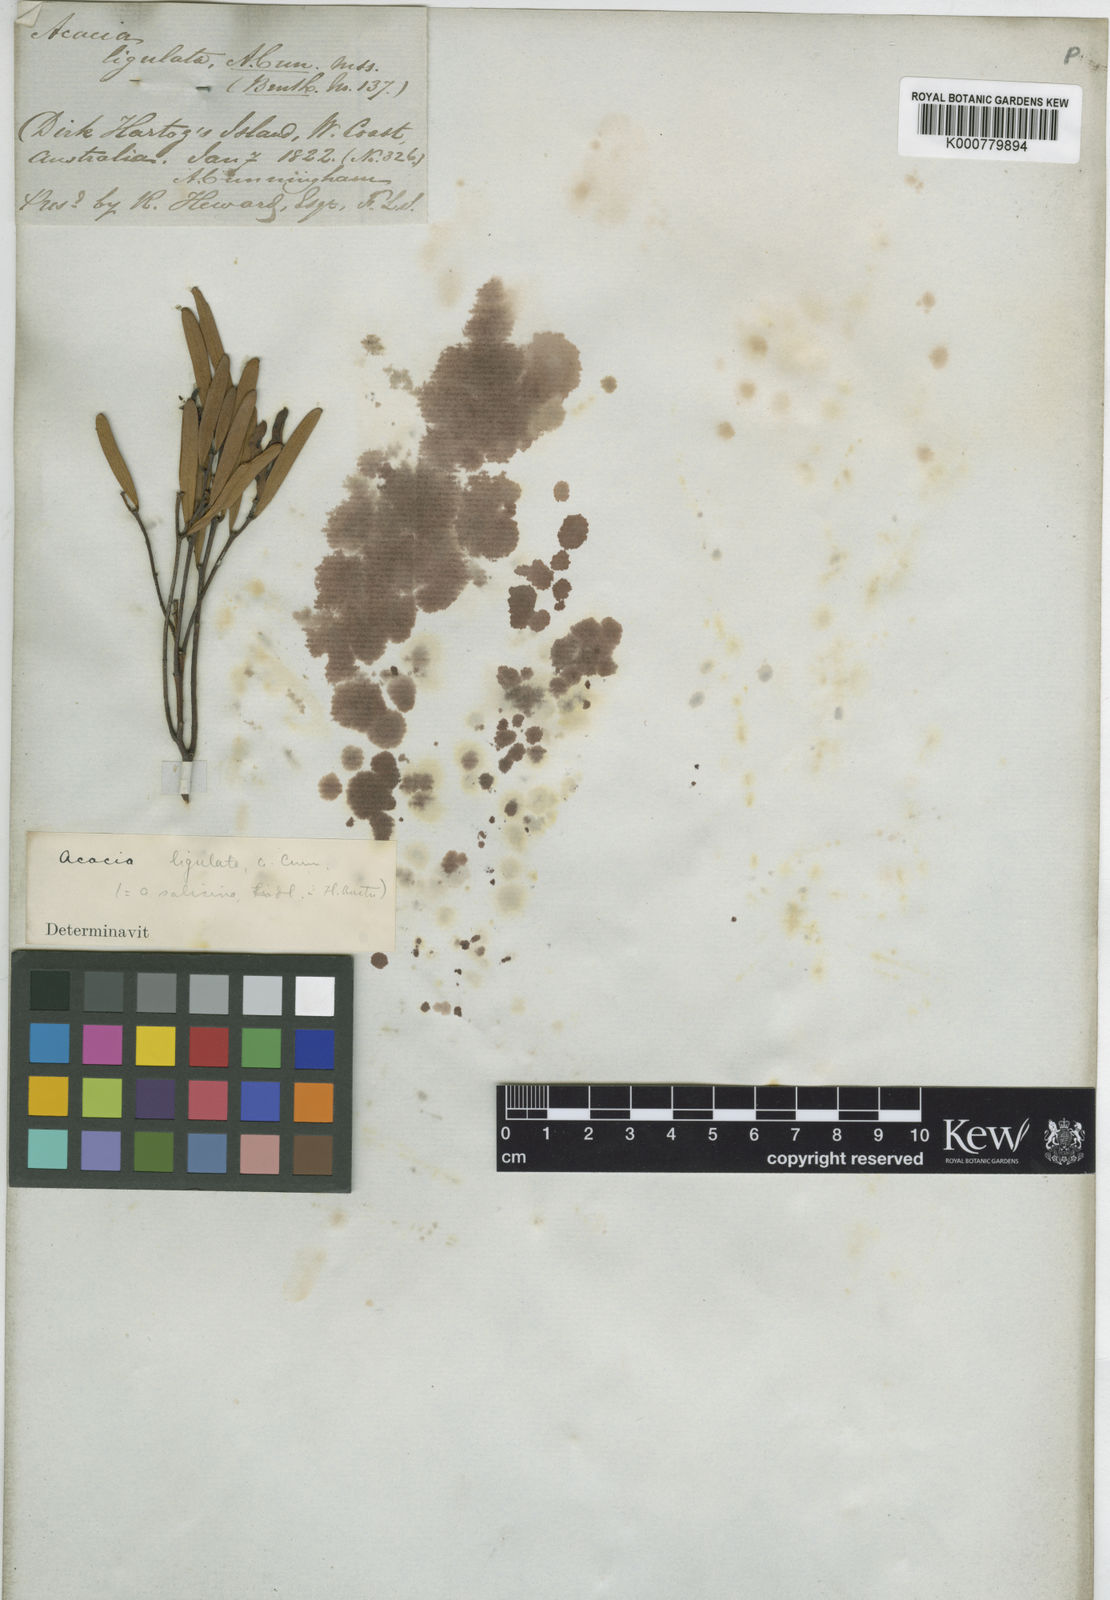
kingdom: Plantae
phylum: Tracheophyta
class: Magnoliopsida
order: Fabales
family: Fabaceae
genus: Acacia
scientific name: Acacia
